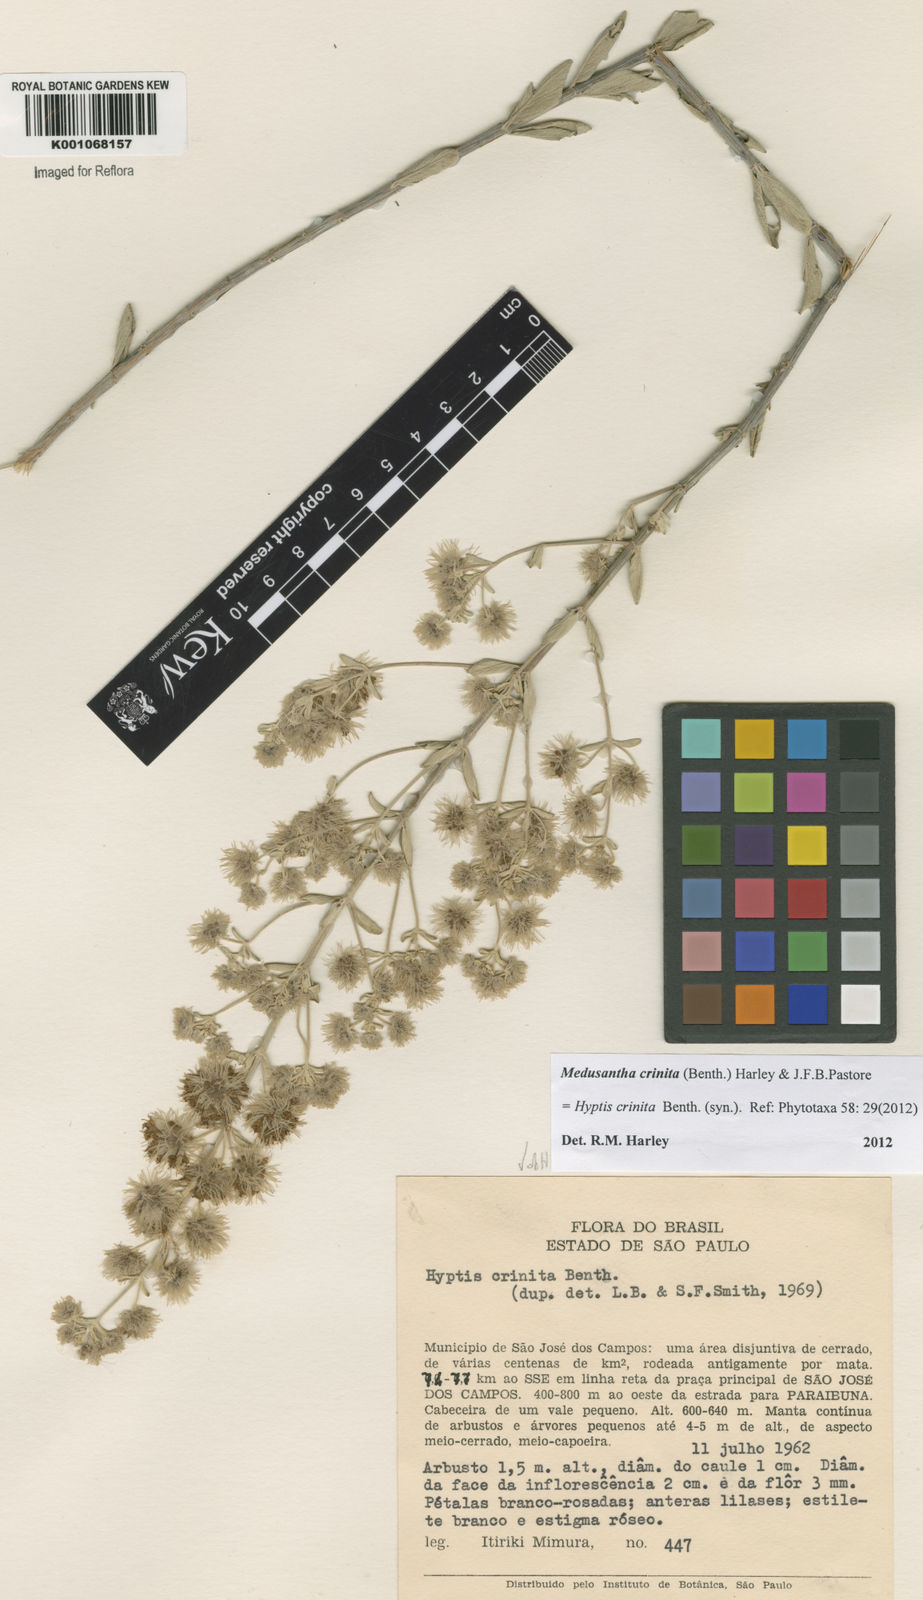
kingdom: Plantae
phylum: Tracheophyta
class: Magnoliopsida
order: Lamiales
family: Lamiaceae
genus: Medusantha
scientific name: Medusantha crinita
